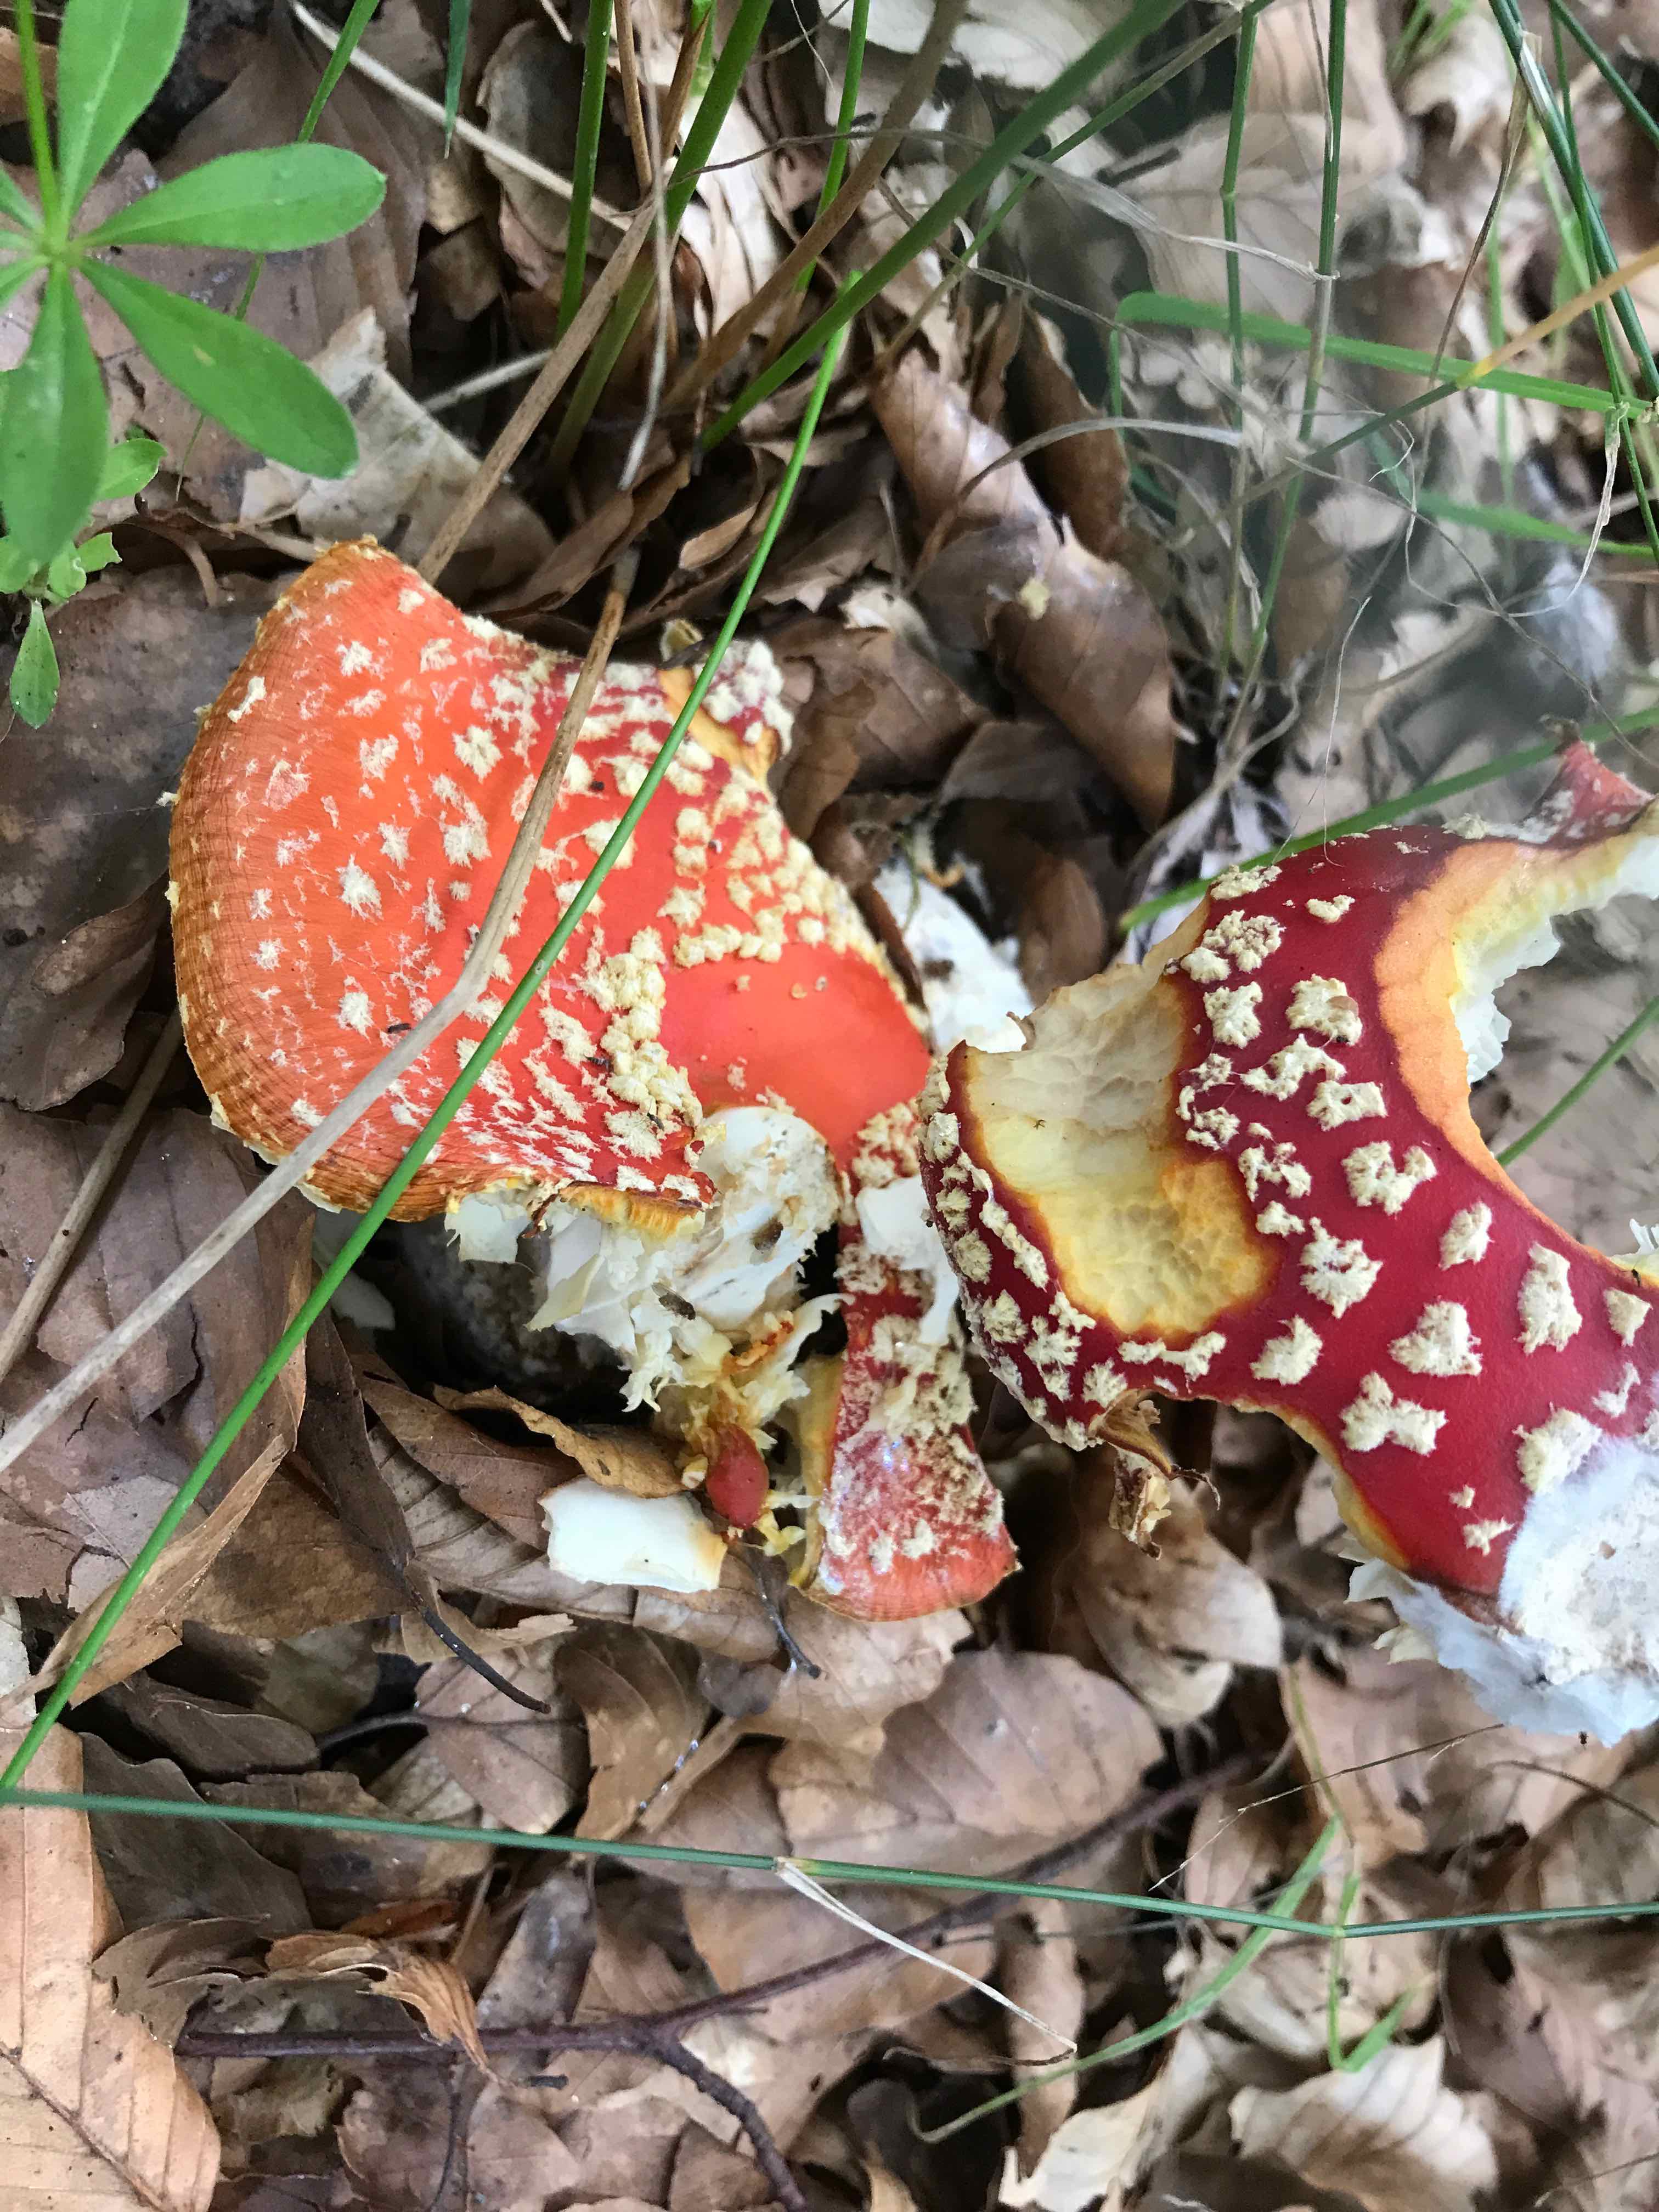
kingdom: Fungi
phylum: Basidiomycota
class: Agaricomycetes
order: Agaricales
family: Amanitaceae
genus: Amanita
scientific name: Amanita muscaria
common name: rød fluesvamp
